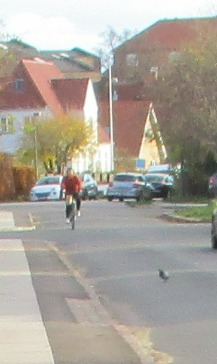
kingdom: Animalia
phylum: Chordata
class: Aves
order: Columbiformes
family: Columbidae
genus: Columba
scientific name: Columba livia
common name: Tamdue
